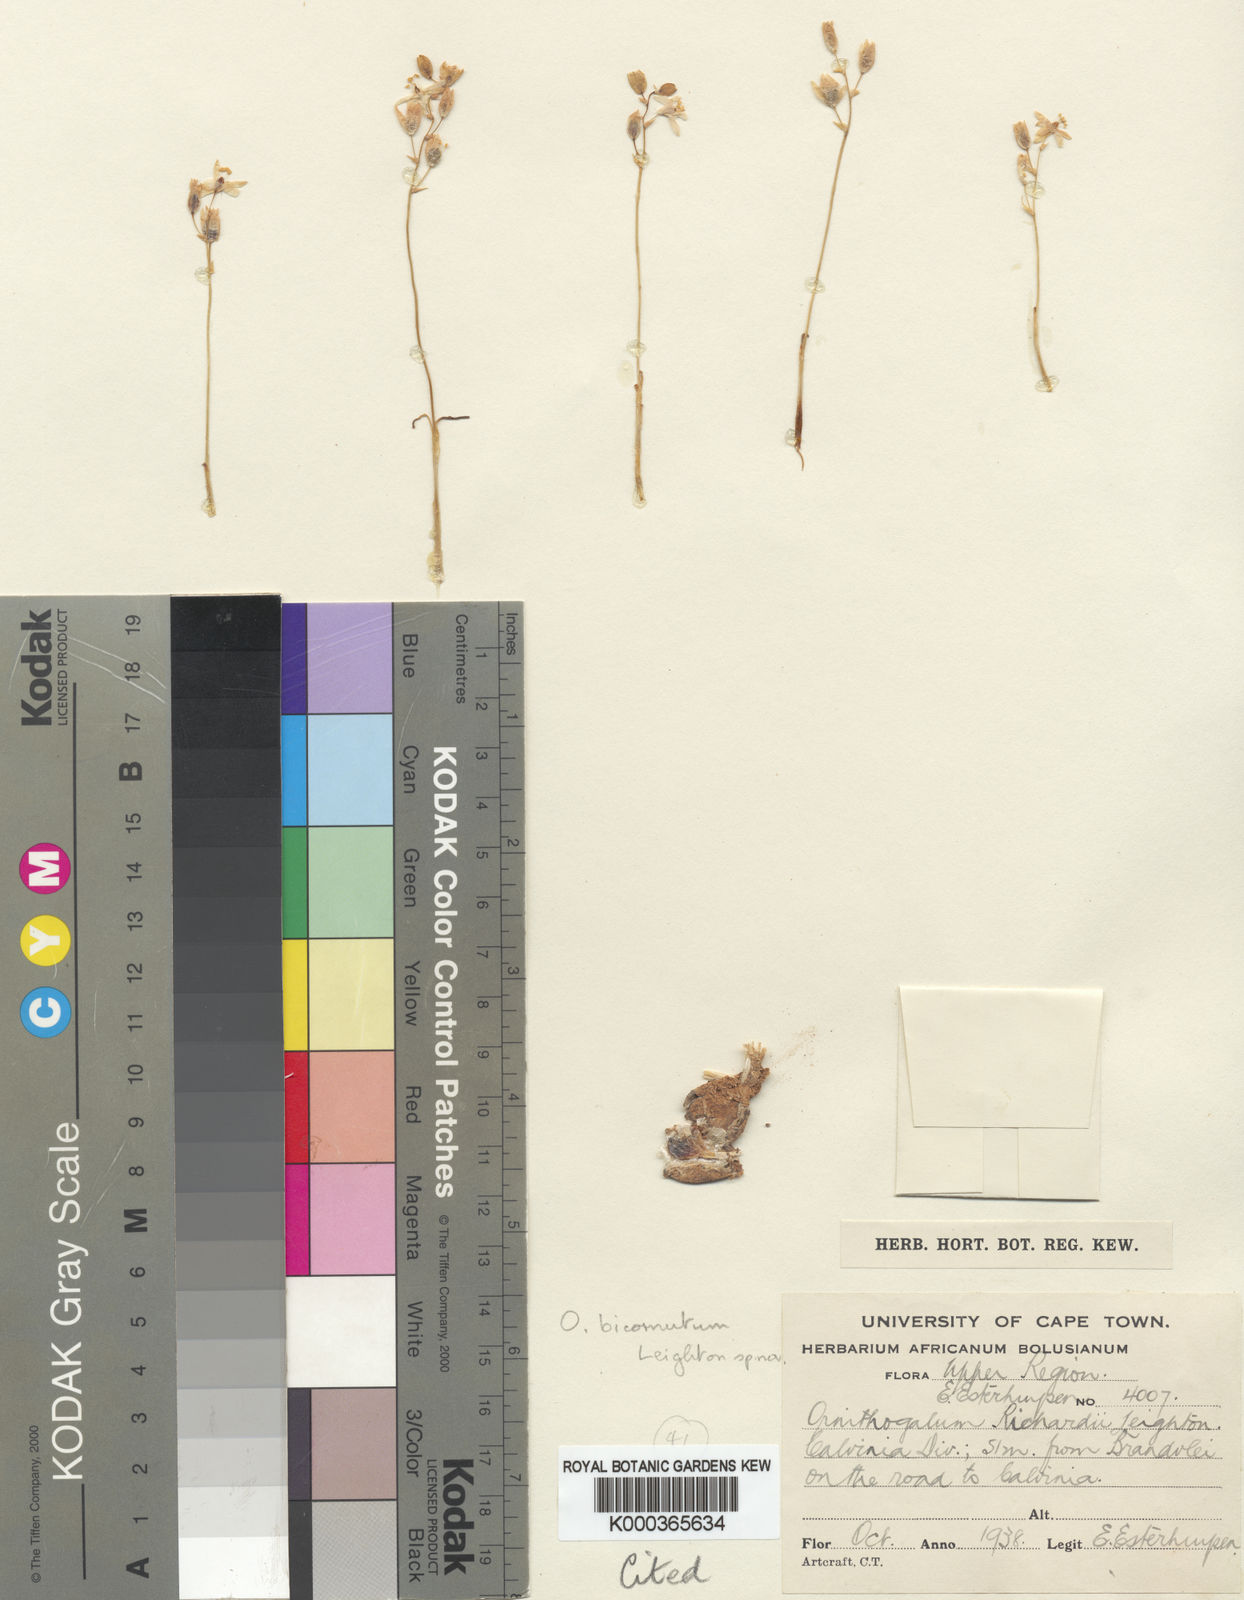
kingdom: Plantae
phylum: Tracheophyta
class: Liliopsida
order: Asparagales
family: Asparagaceae
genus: Ornithogalum
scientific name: Ornithogalum bicornutum
